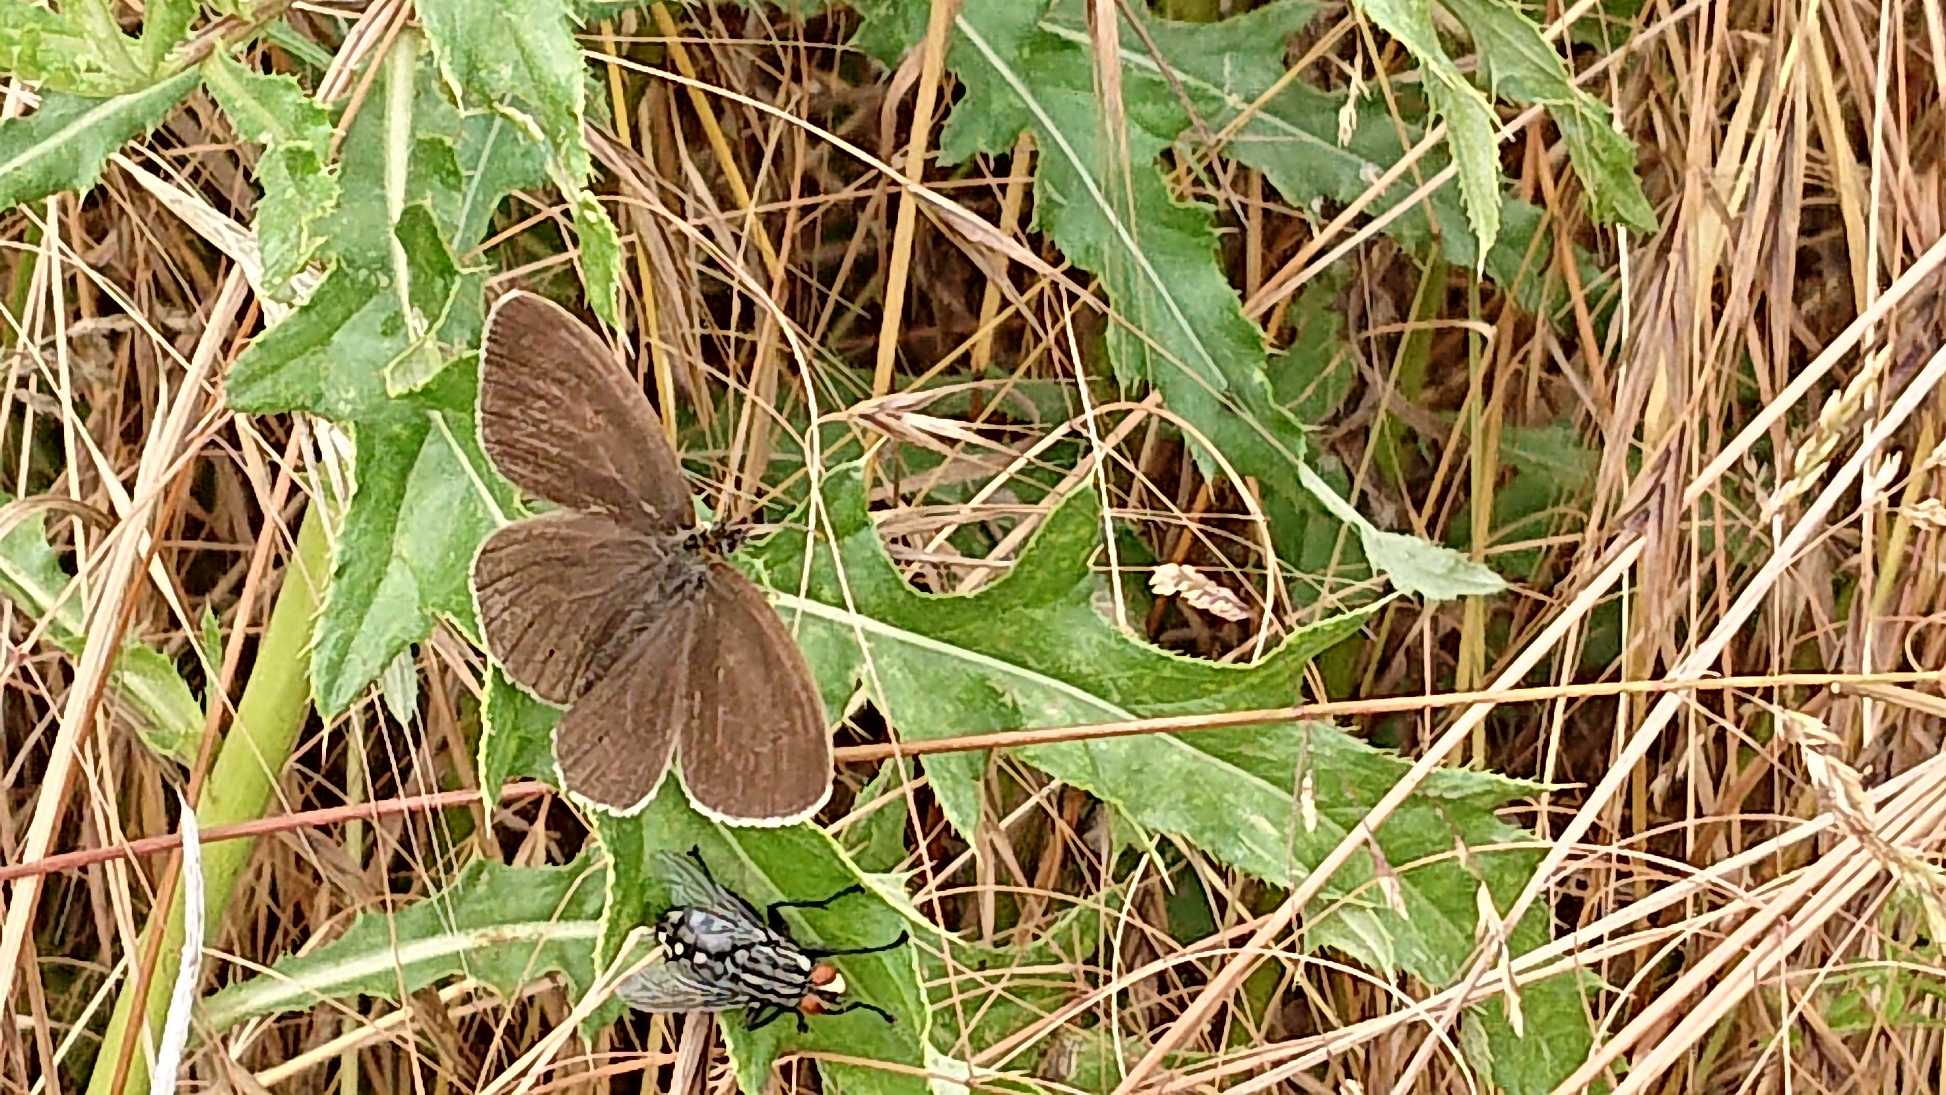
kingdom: Animalia
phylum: Arthropoda
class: Insecta
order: Lepidoptera
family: Nymphalidae
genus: Aphantopus
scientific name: Aphantopus hyperantus
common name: Engrandøje
